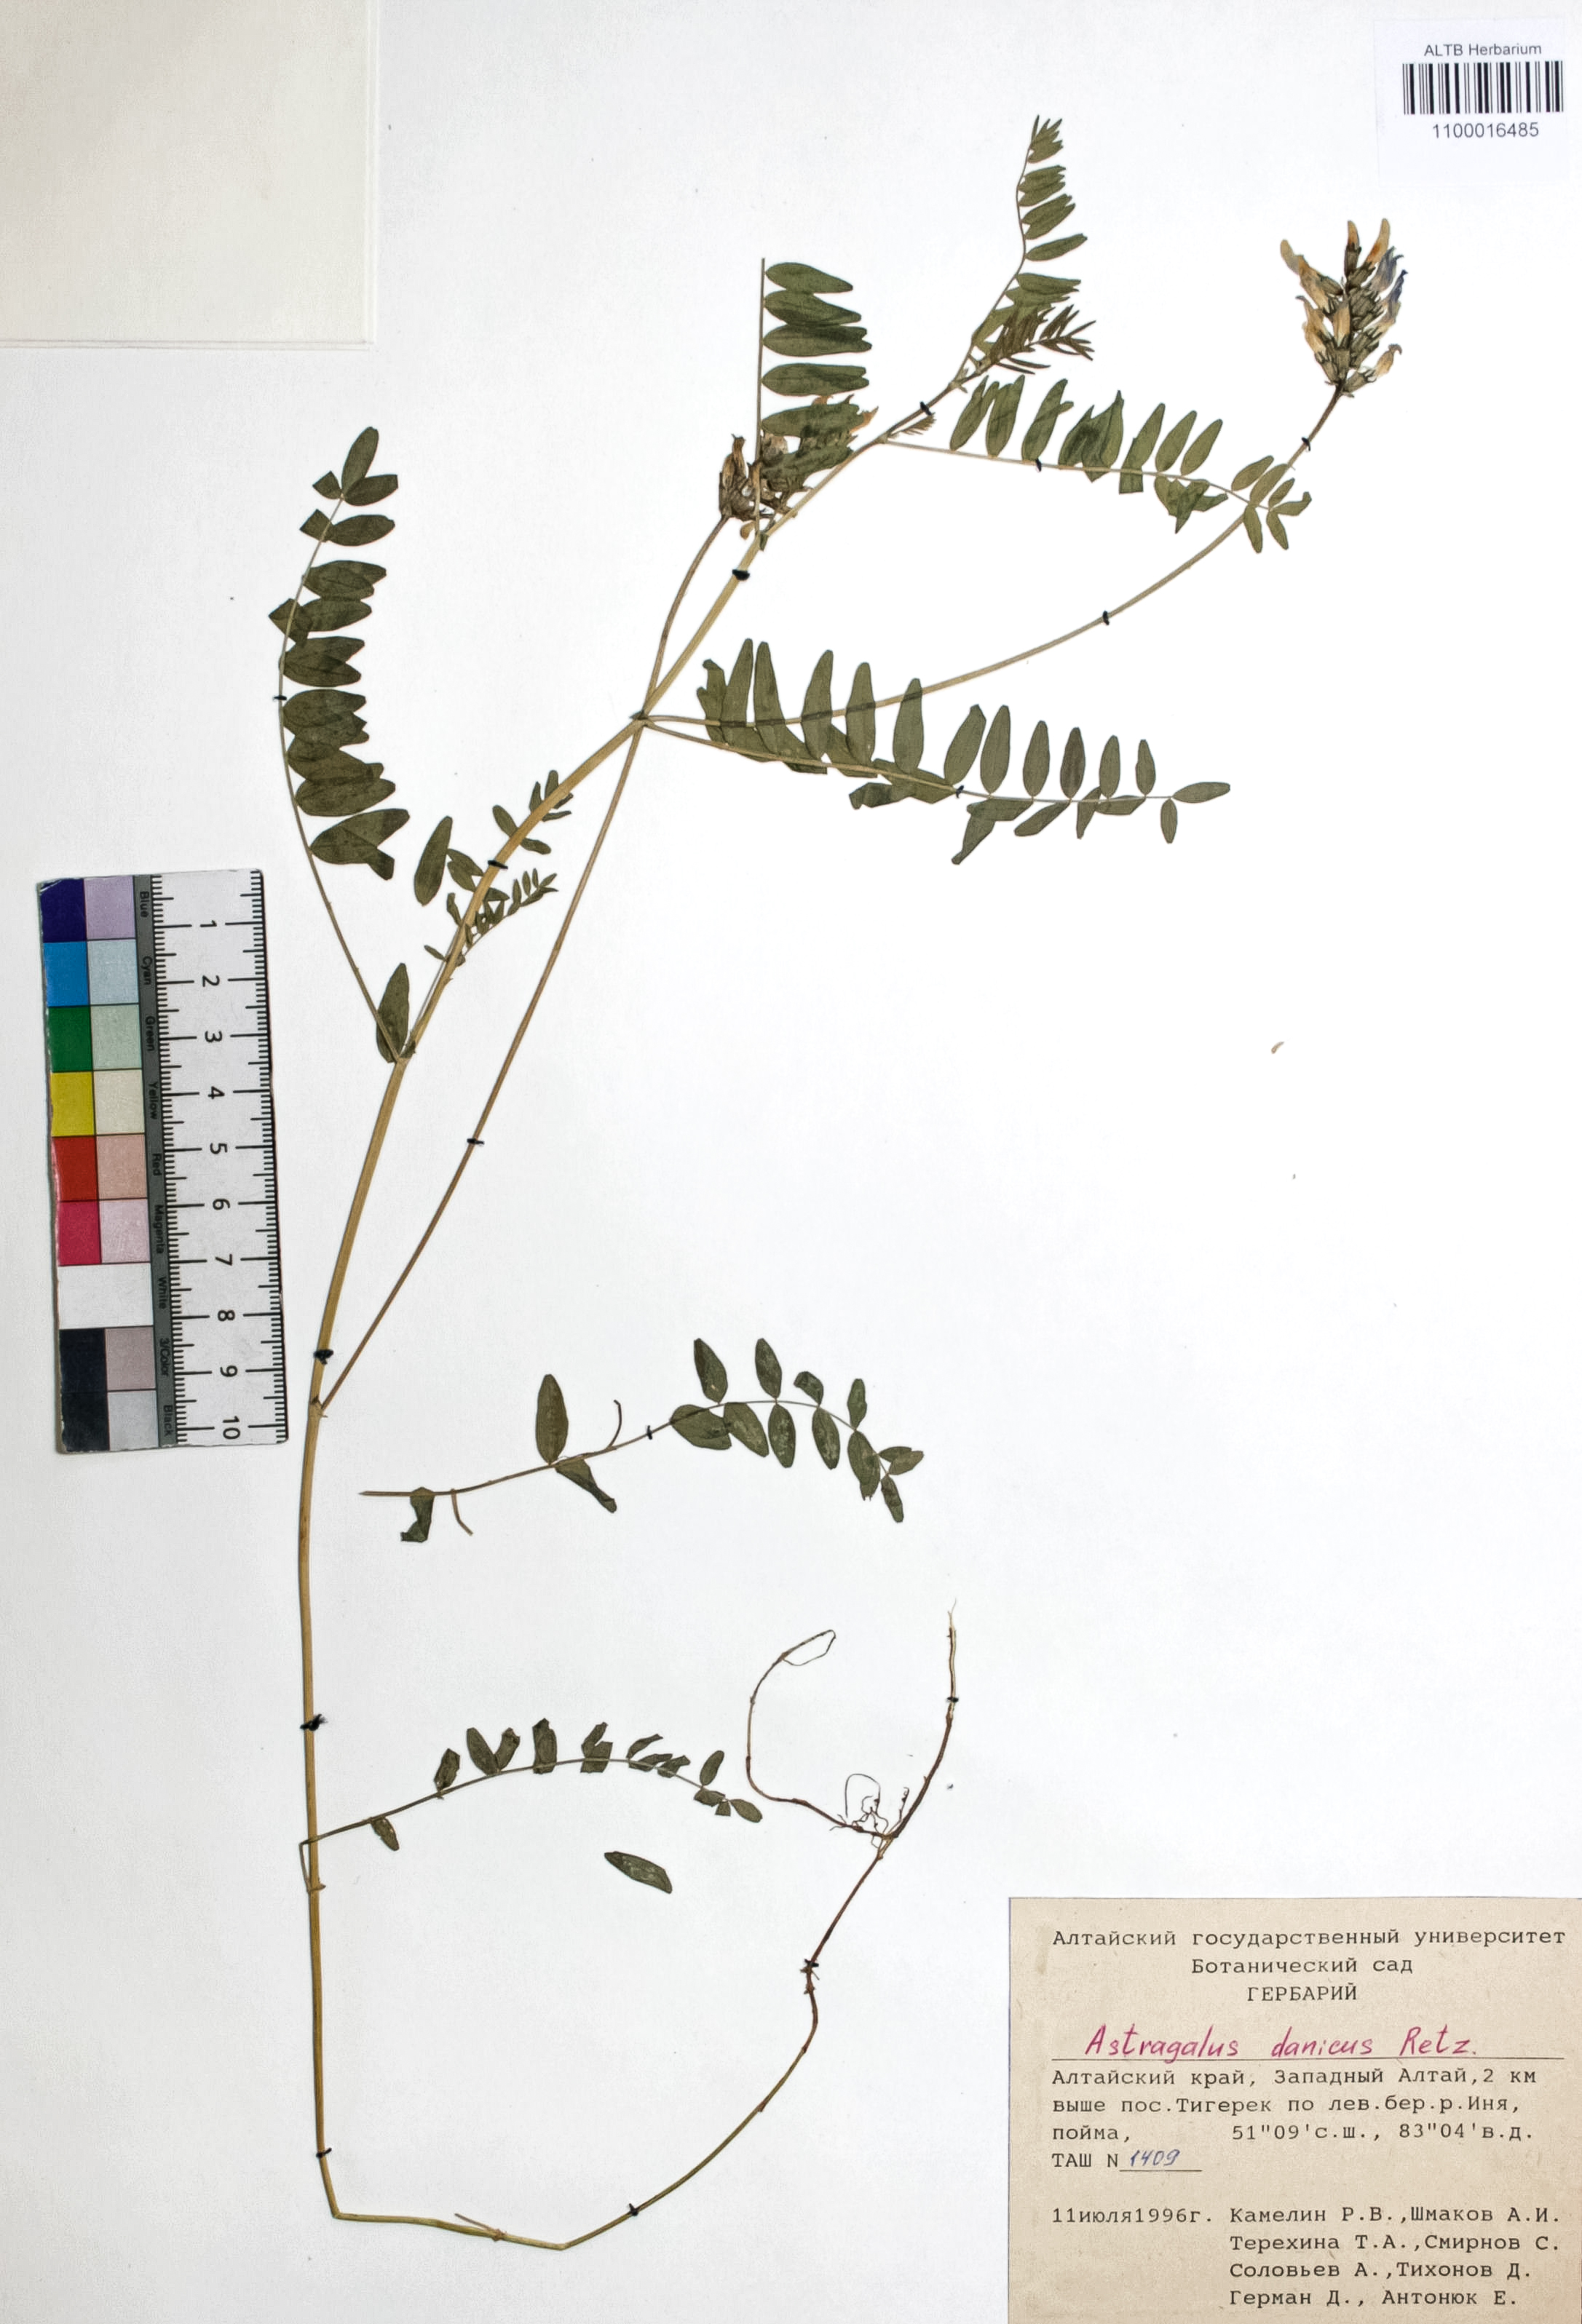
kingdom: Plantae
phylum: Tracheophyta
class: Magnoliopsida
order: Fabales
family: Fabaceae
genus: Astragalus
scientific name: Astragalus danicus
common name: Purple milk-vetch
